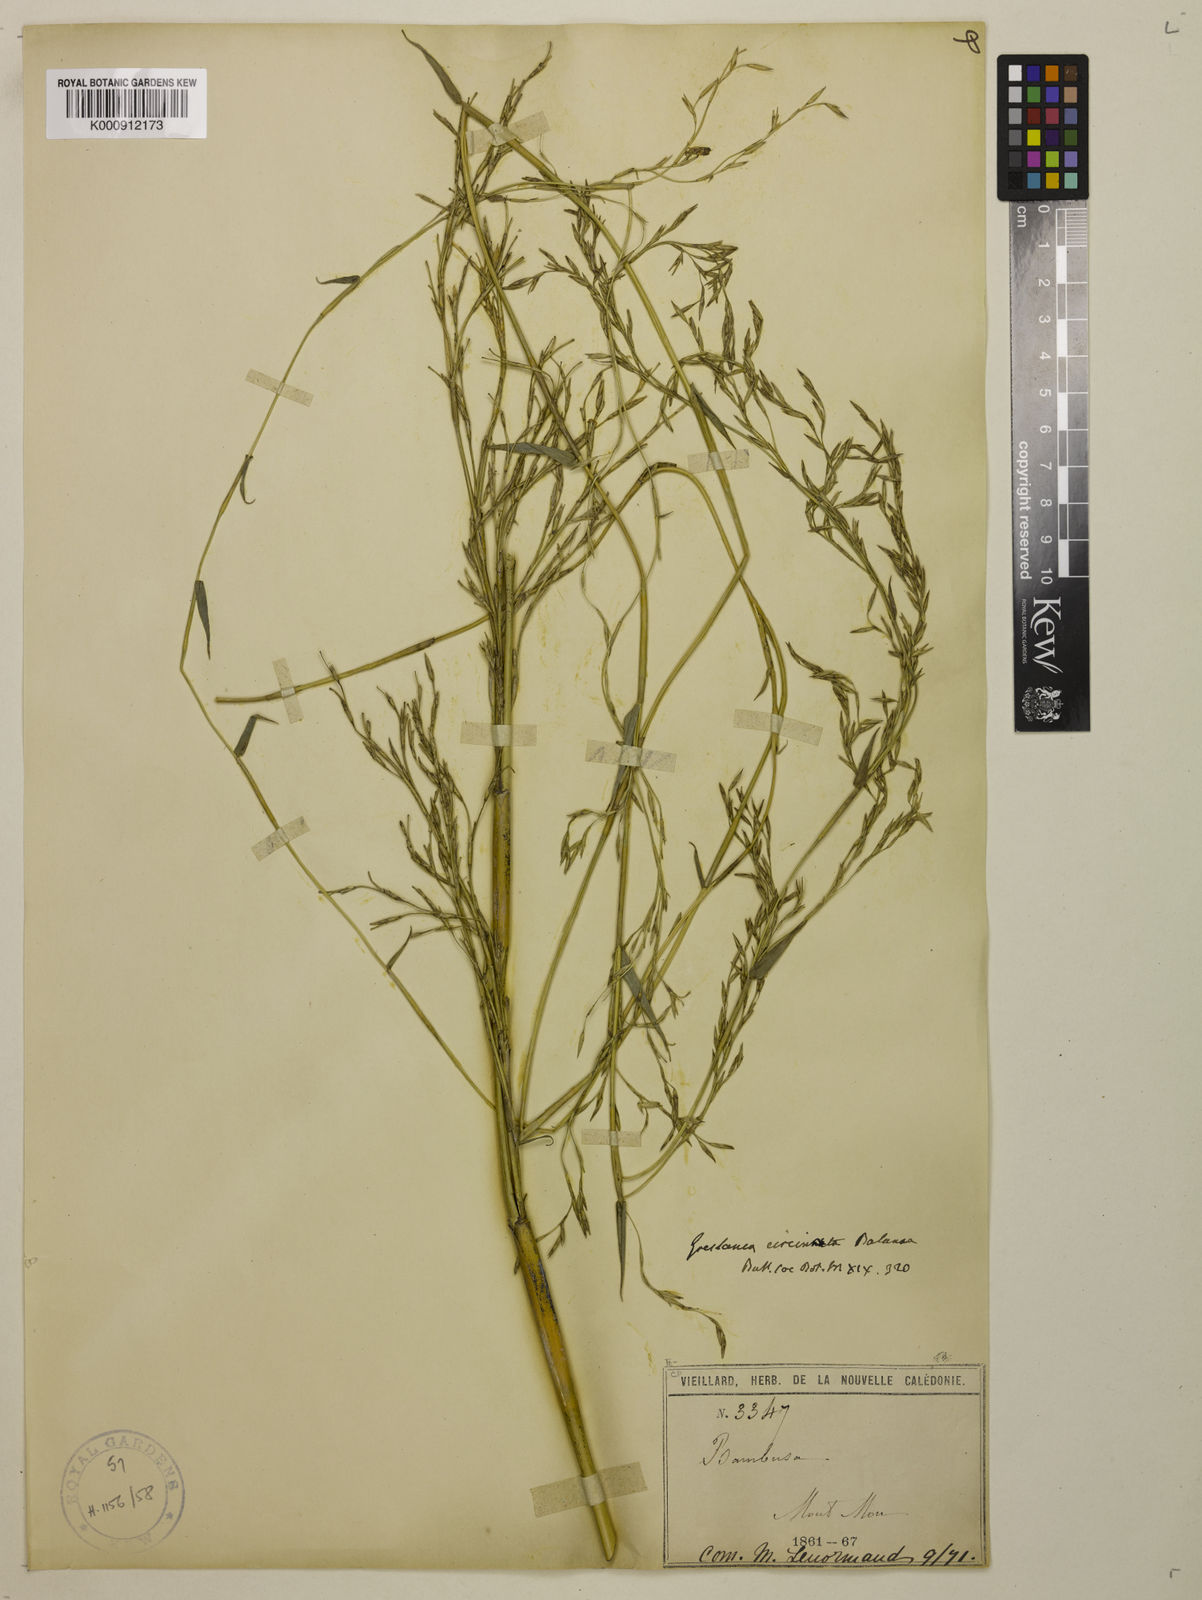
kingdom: Plantae
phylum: Tracheophyta
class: Liliopsida
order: Poales
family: Poaceae
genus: Greslania
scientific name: Greslania circinata
